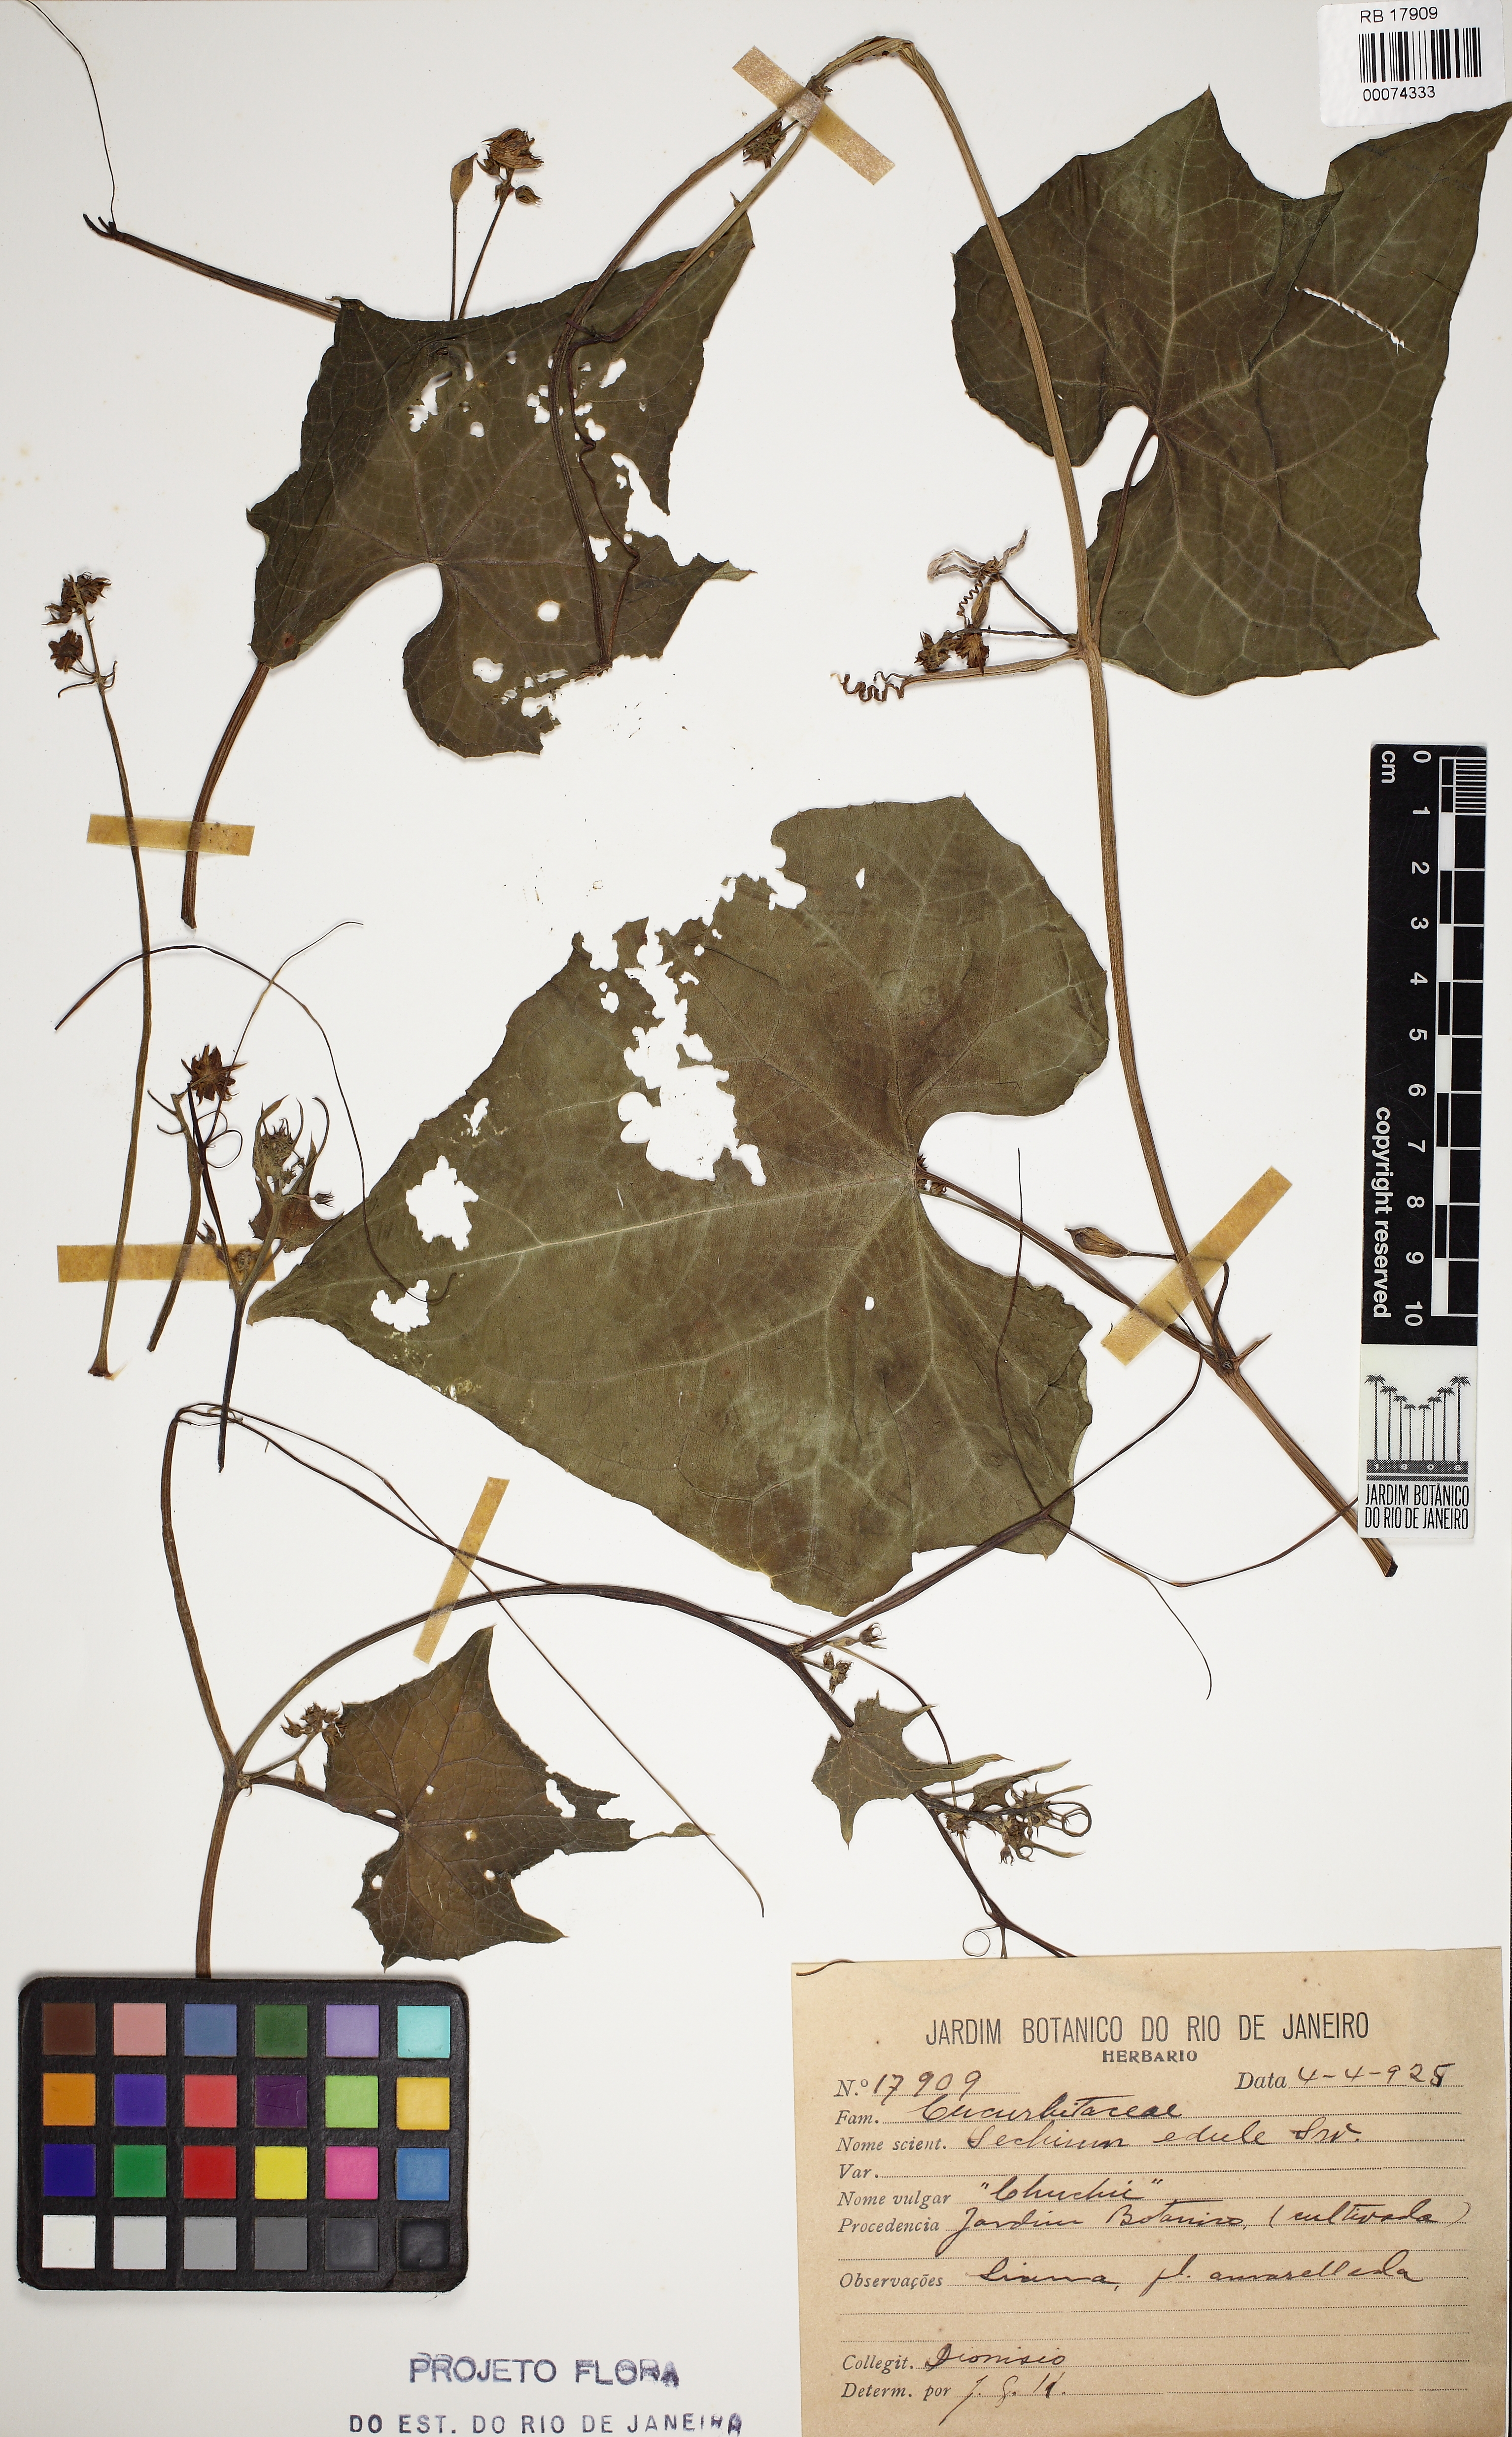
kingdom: Plantae
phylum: Tracheophyta
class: Magnoliopsida
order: Cucurbitales
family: Cucurbitaceae
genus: Sechium
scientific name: Sechium edule
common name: Chayote
